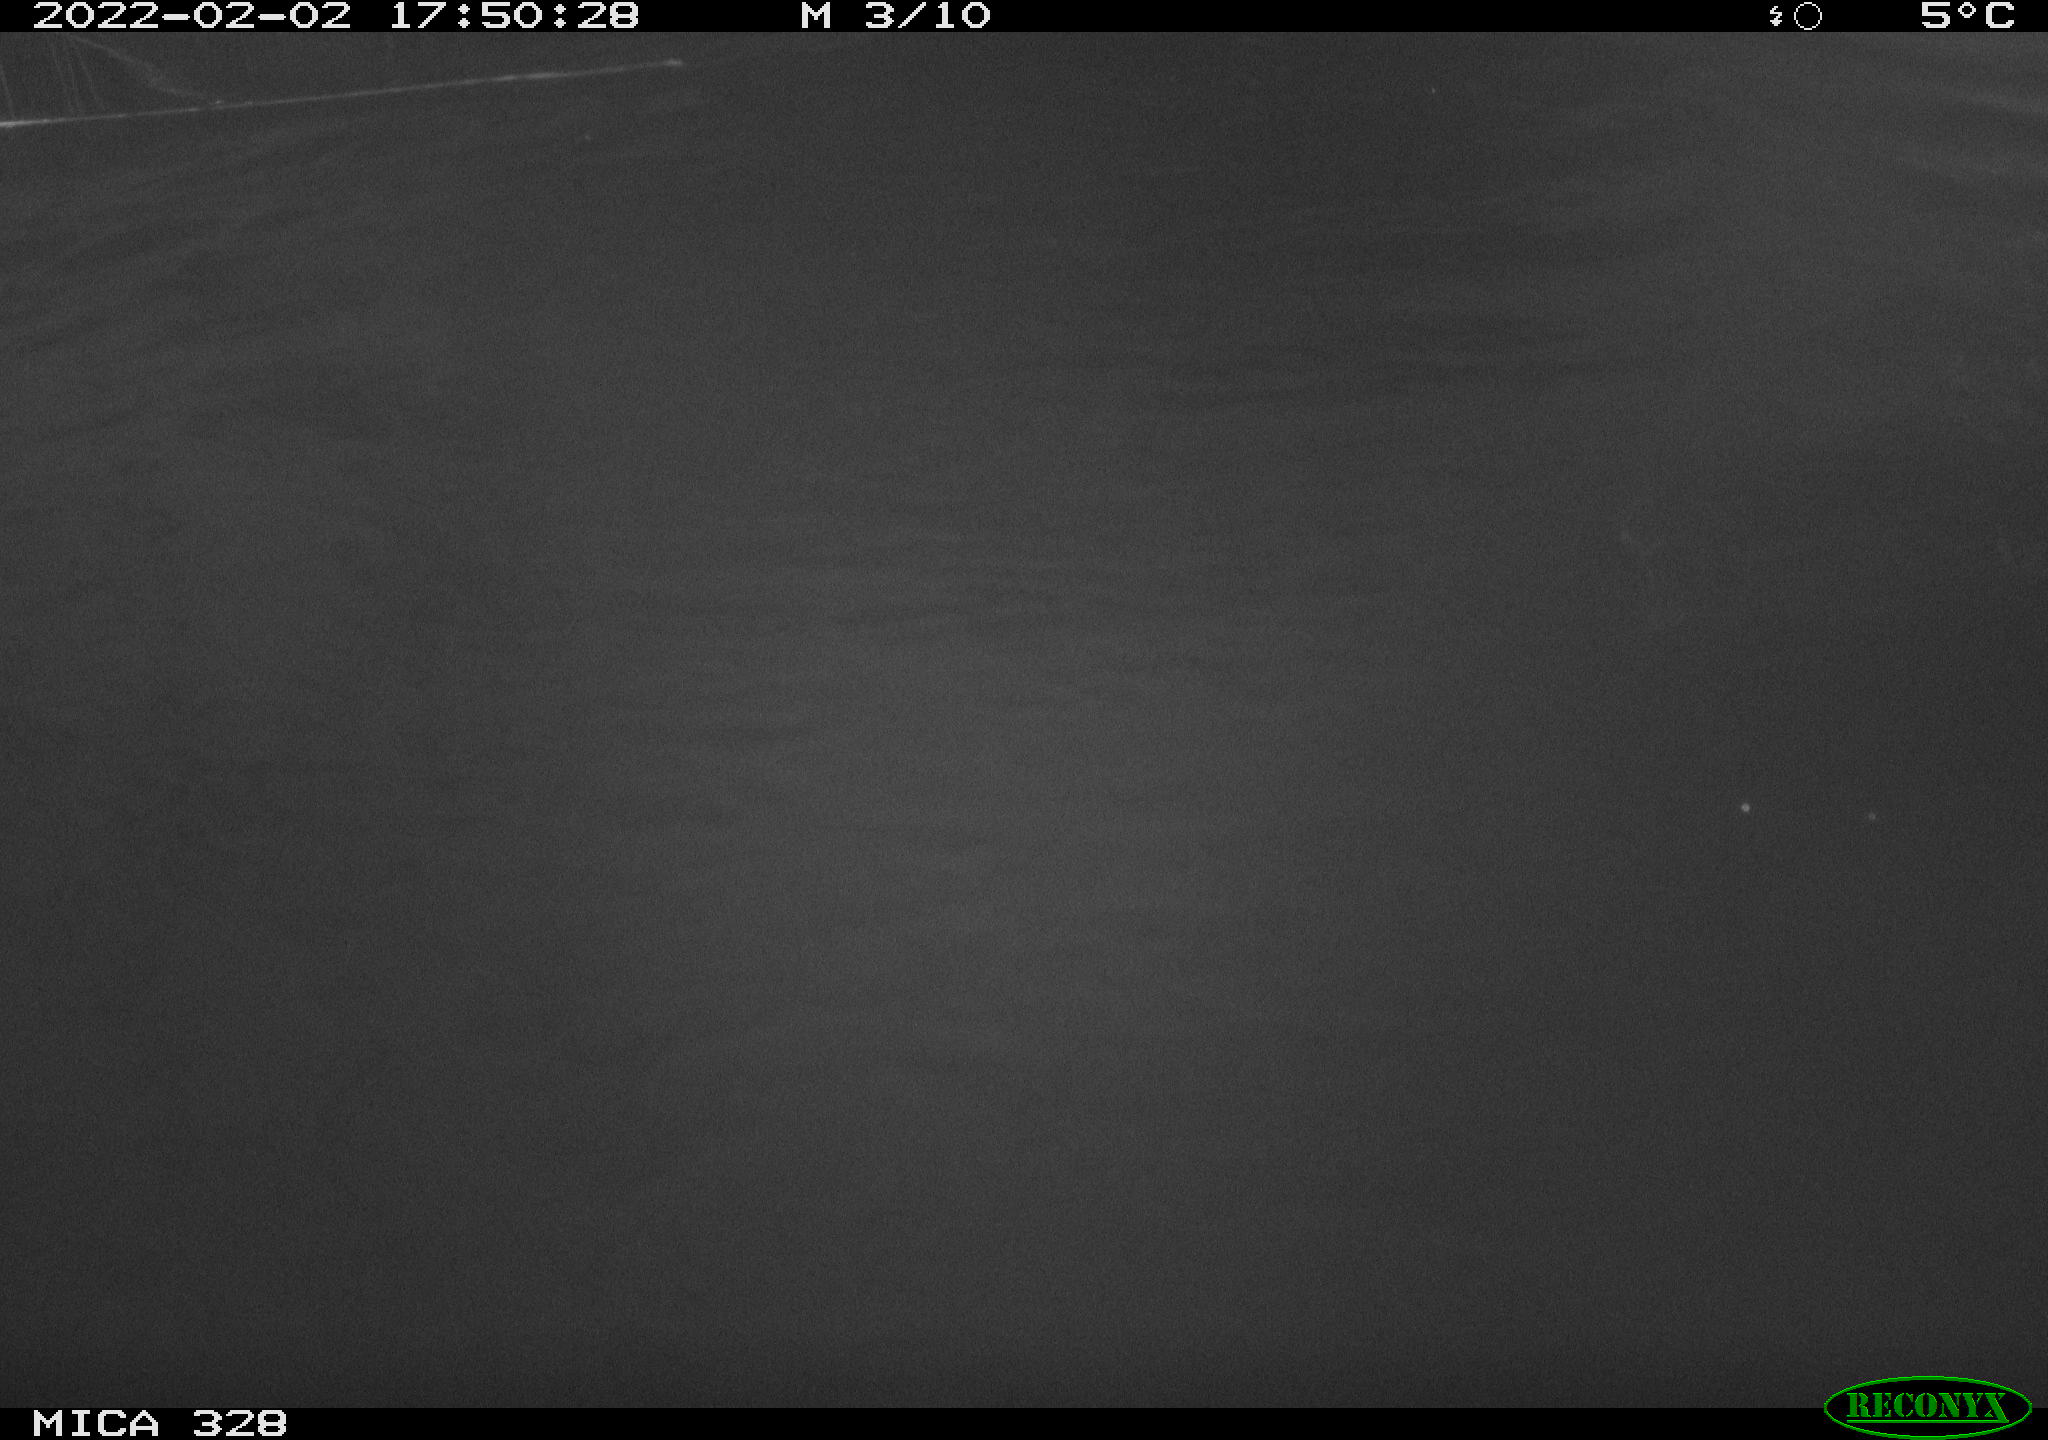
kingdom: Animalia
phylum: Chordata
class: Mammalia
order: Rodentia
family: Cricetidae
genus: Ondatra
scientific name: Ondatra zibethicus
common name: Muskrat
